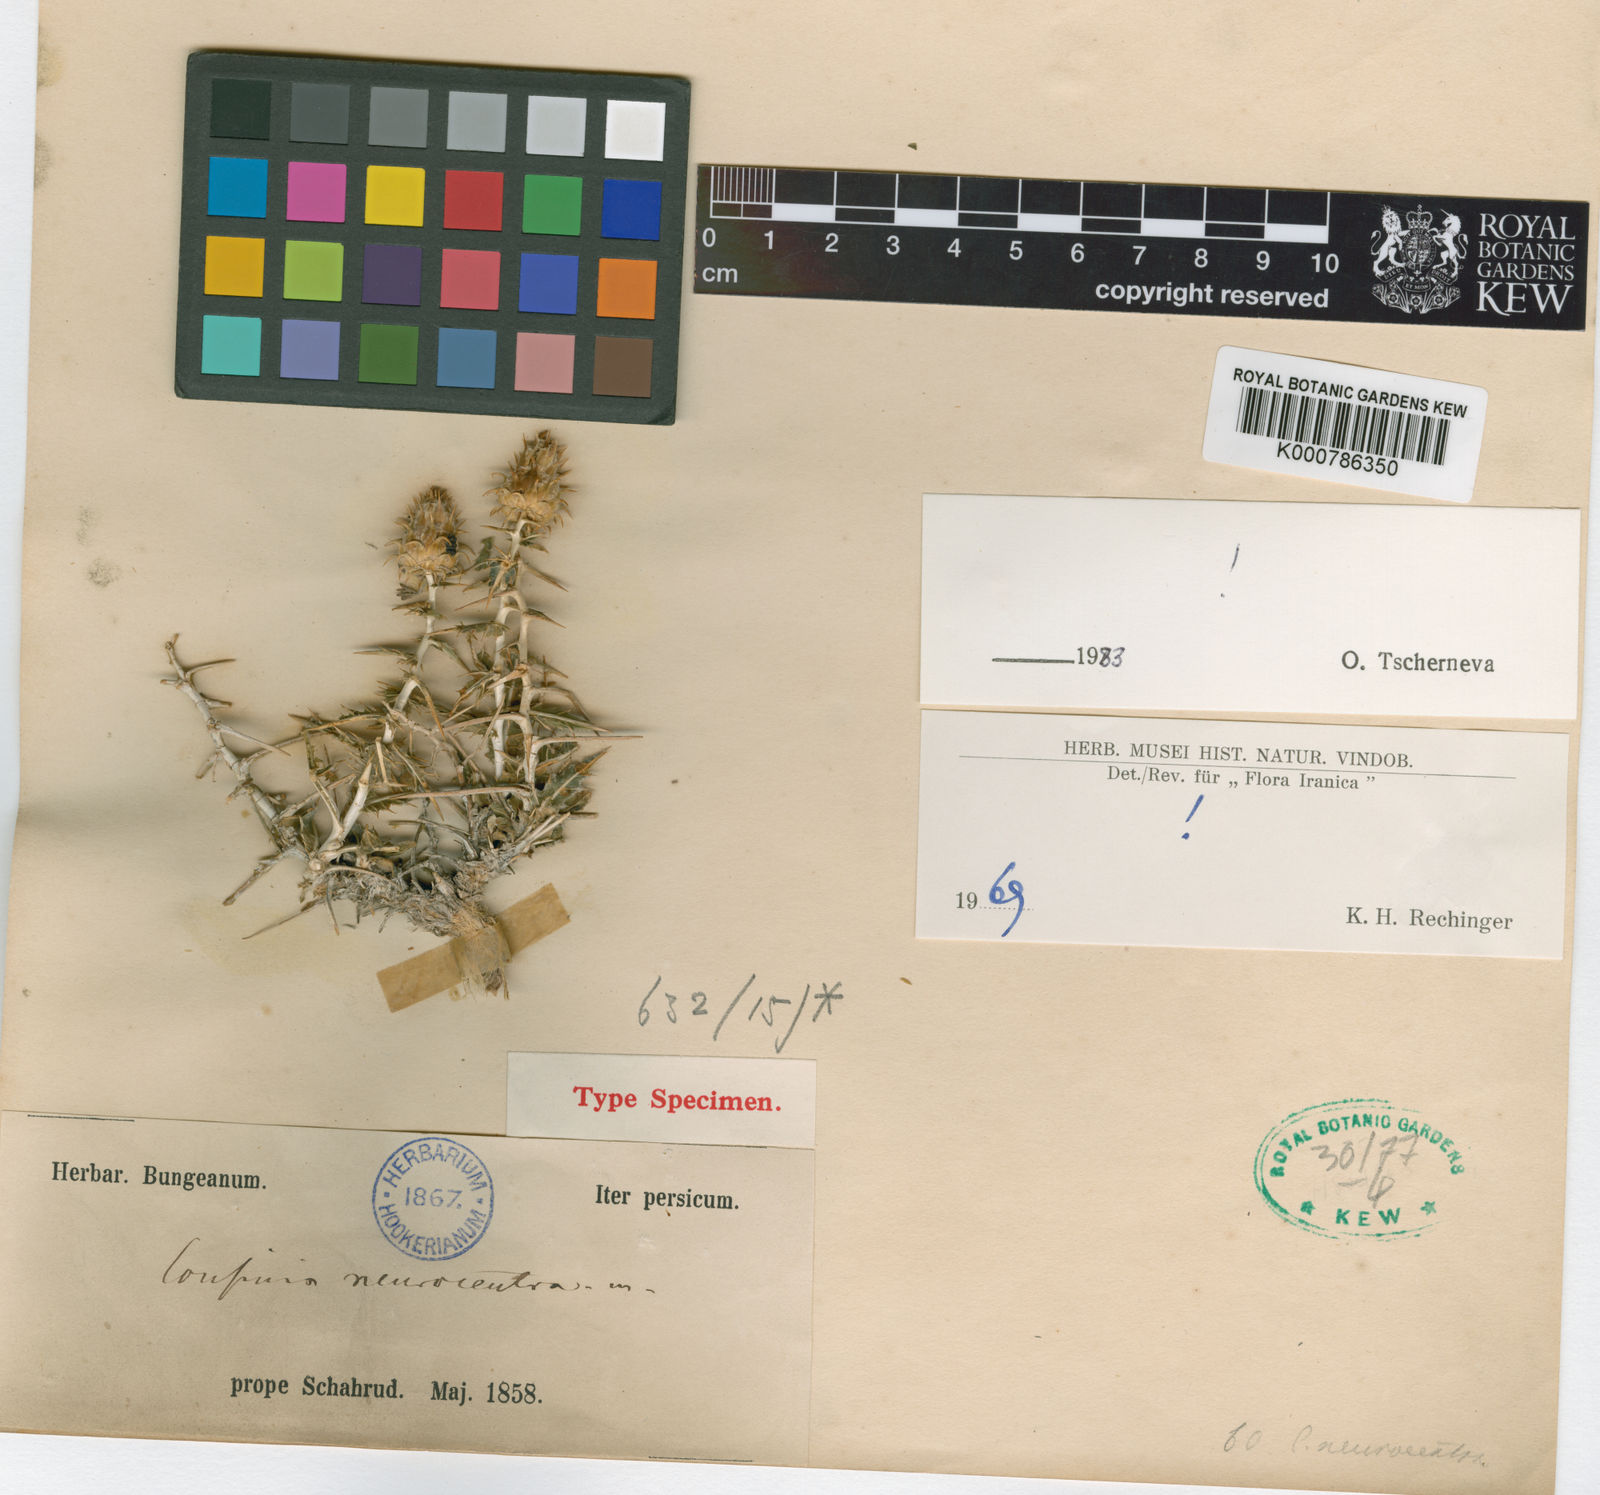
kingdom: Plantae
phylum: Tracheophyta
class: Magnoliopsida
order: Asterales
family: Asteraceae
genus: Cousinia
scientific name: Cousinia neurocentra
